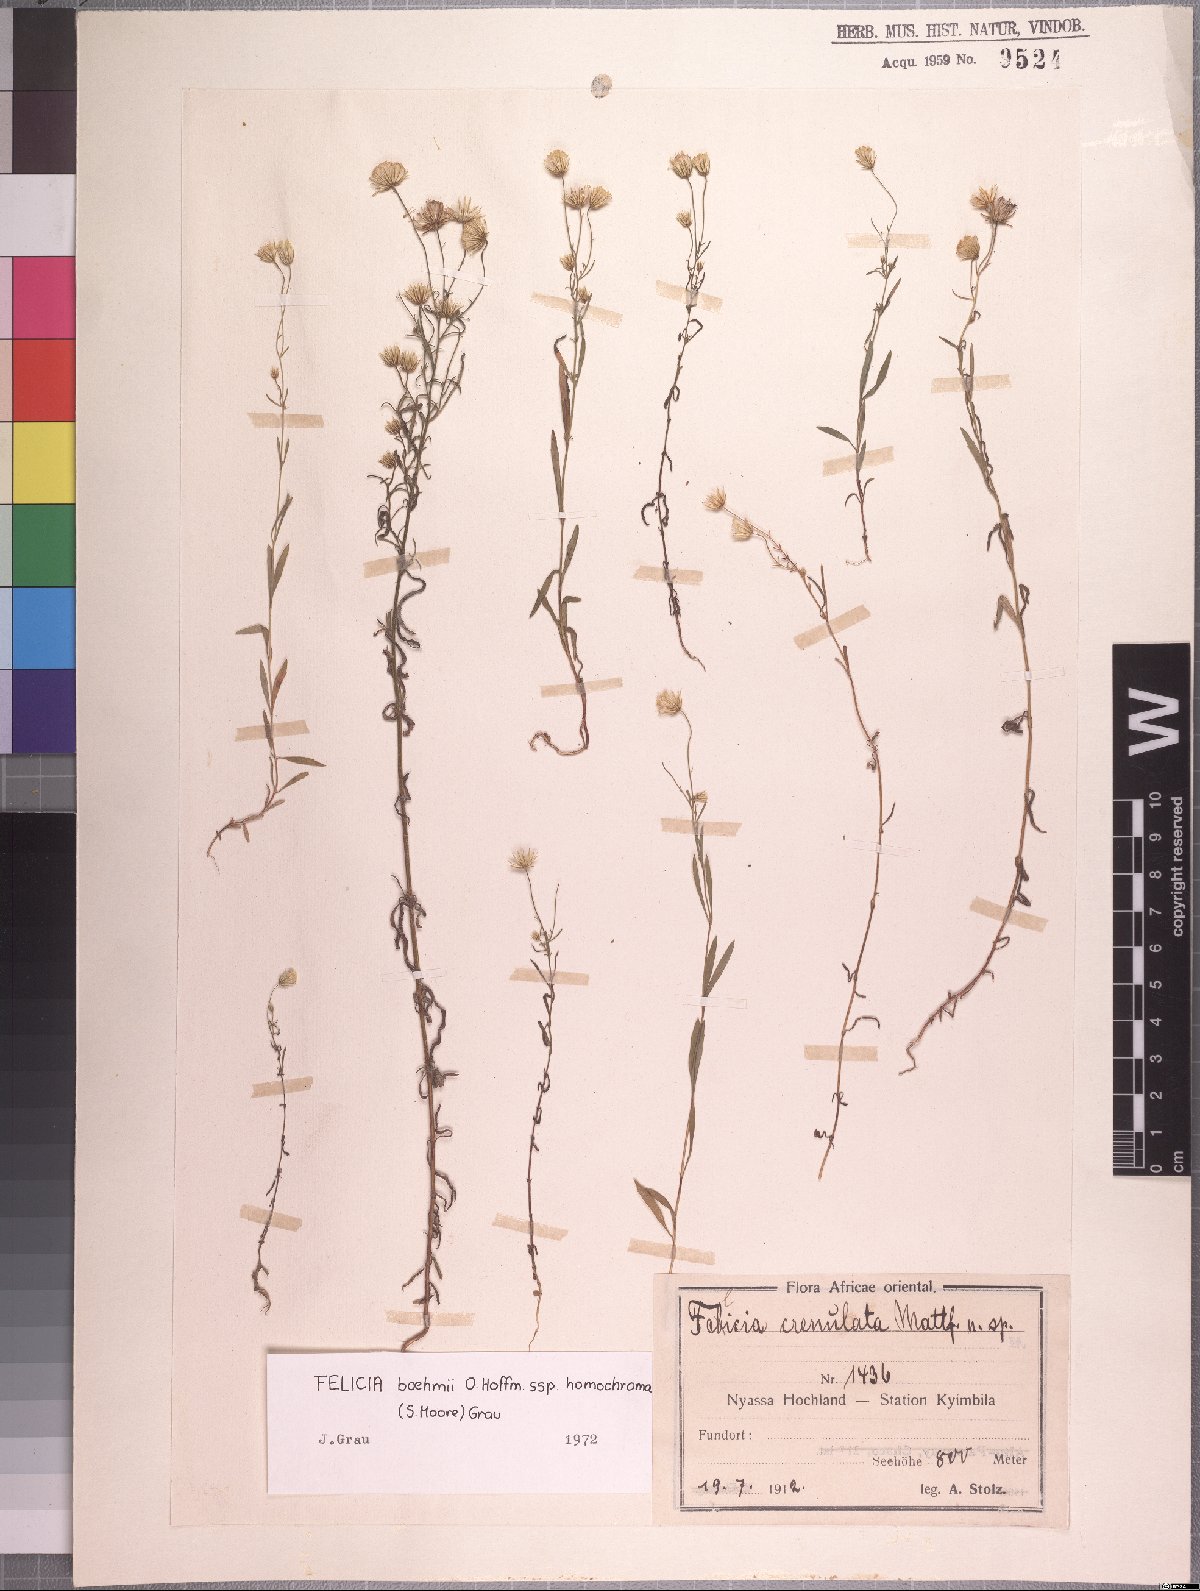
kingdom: Plantae
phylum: Tracheophyta
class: Magnoliopsida
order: Asterales
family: Asteraceae
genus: Felicia
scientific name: Felicia boehmii
